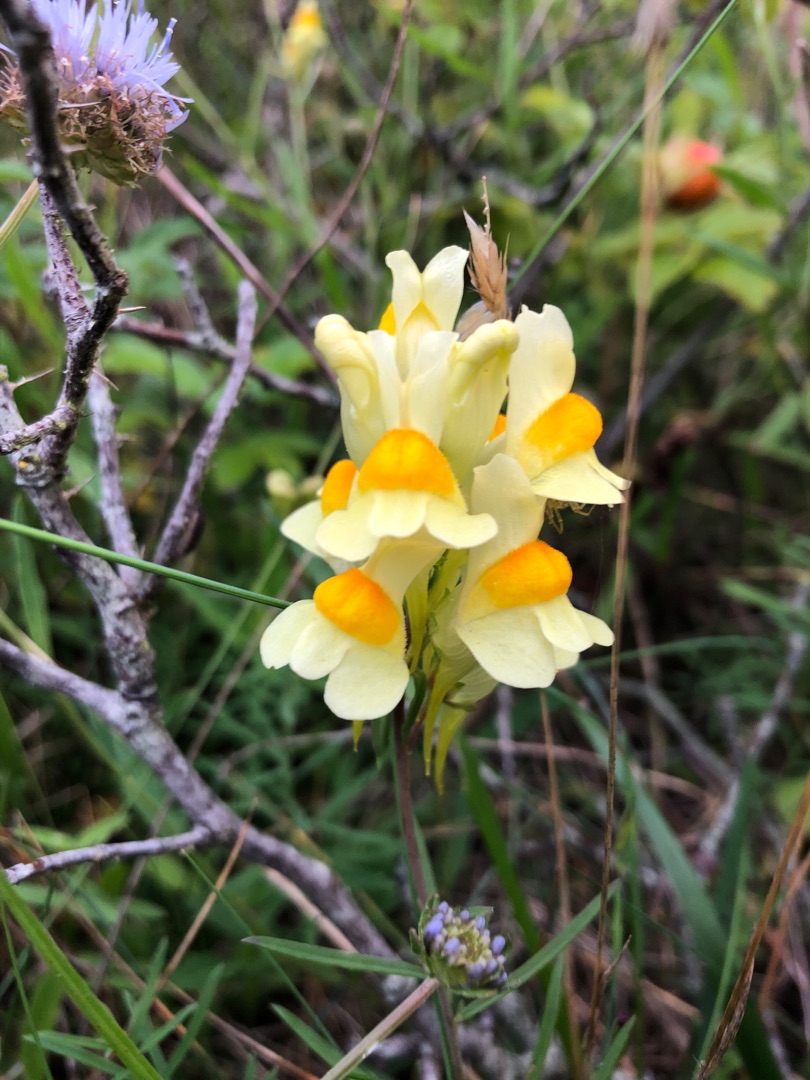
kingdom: Plantae
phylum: Tracheophyta
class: Magnoliopsida
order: Lamiales
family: Plantaginaceae
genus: Linaria
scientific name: Linaria vulgaris
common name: Almindelig torskemund
